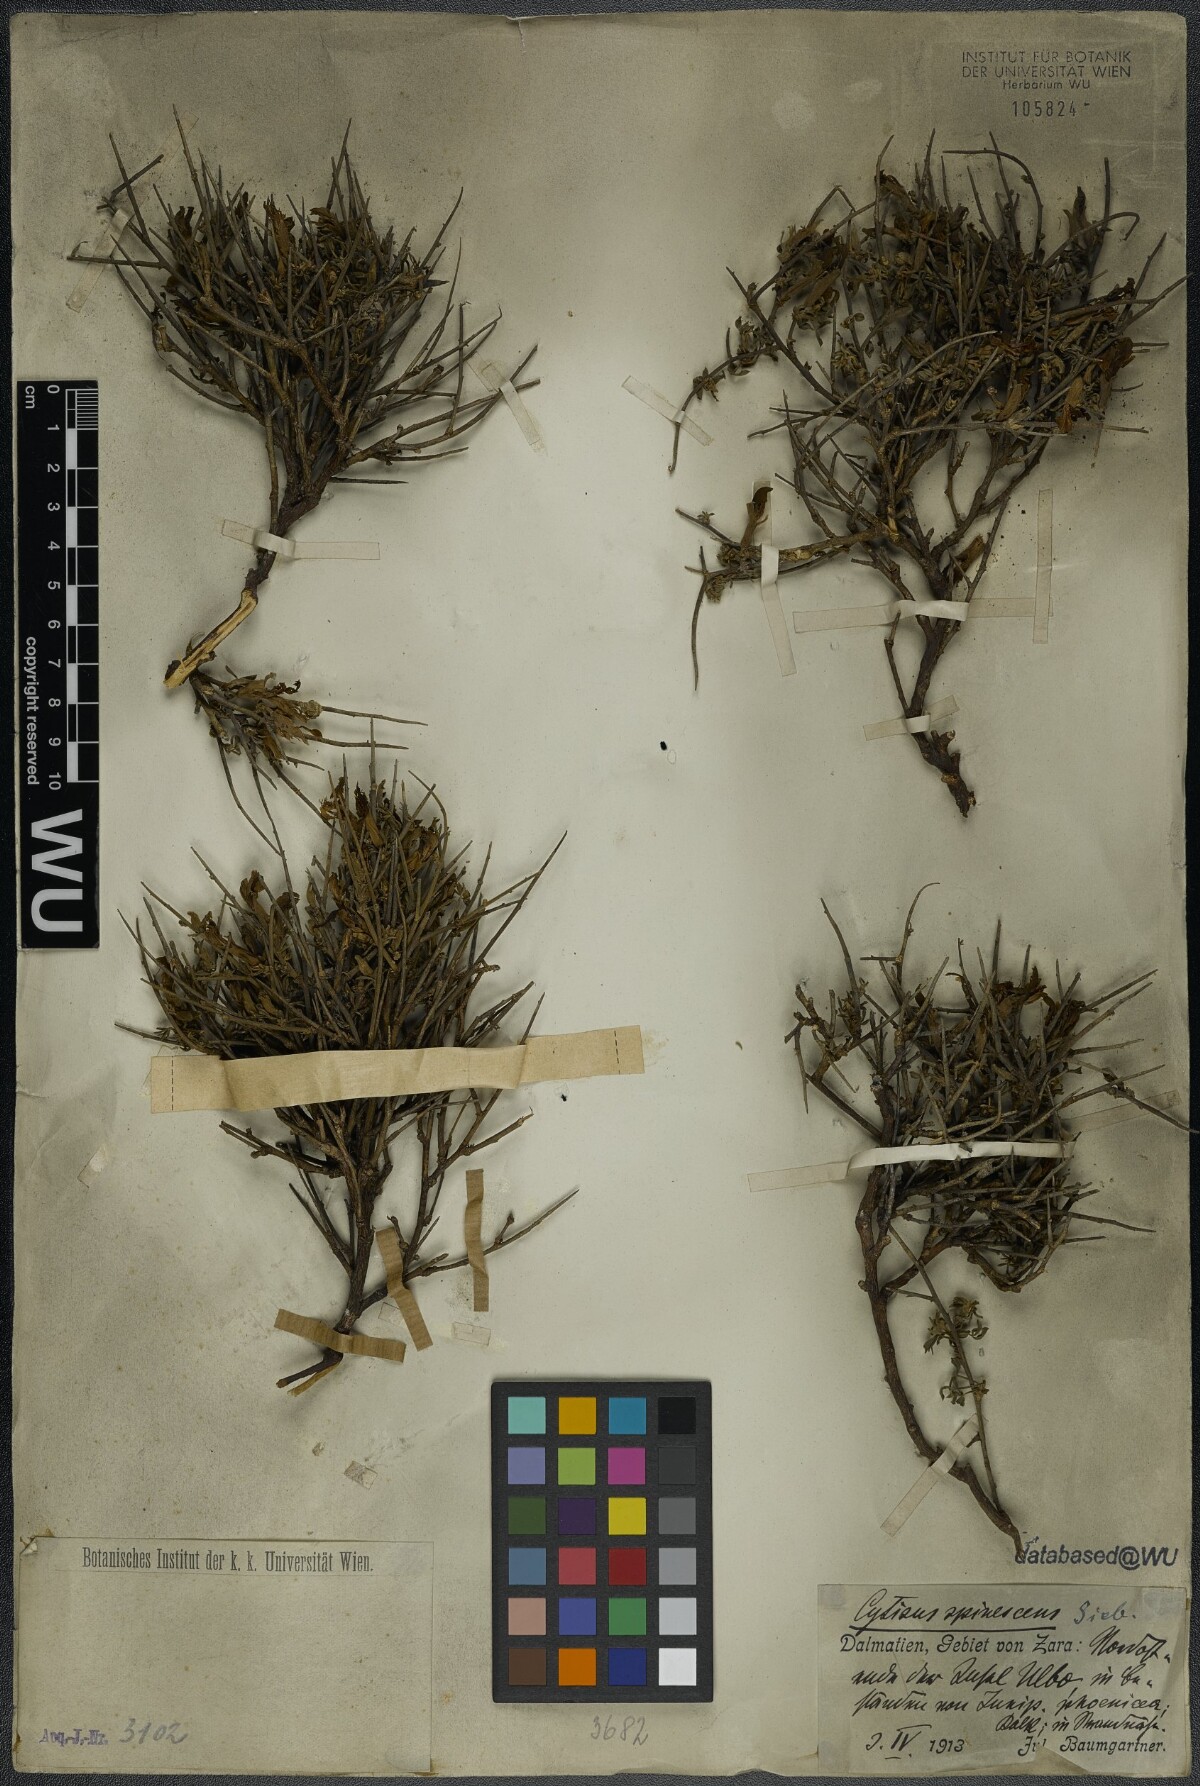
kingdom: Plantae
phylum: Tracheophyta
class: Magnoliopsida
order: Fabales
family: Fabaceae
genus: Chamaecytisus
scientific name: Chamaecytisus spinescens
